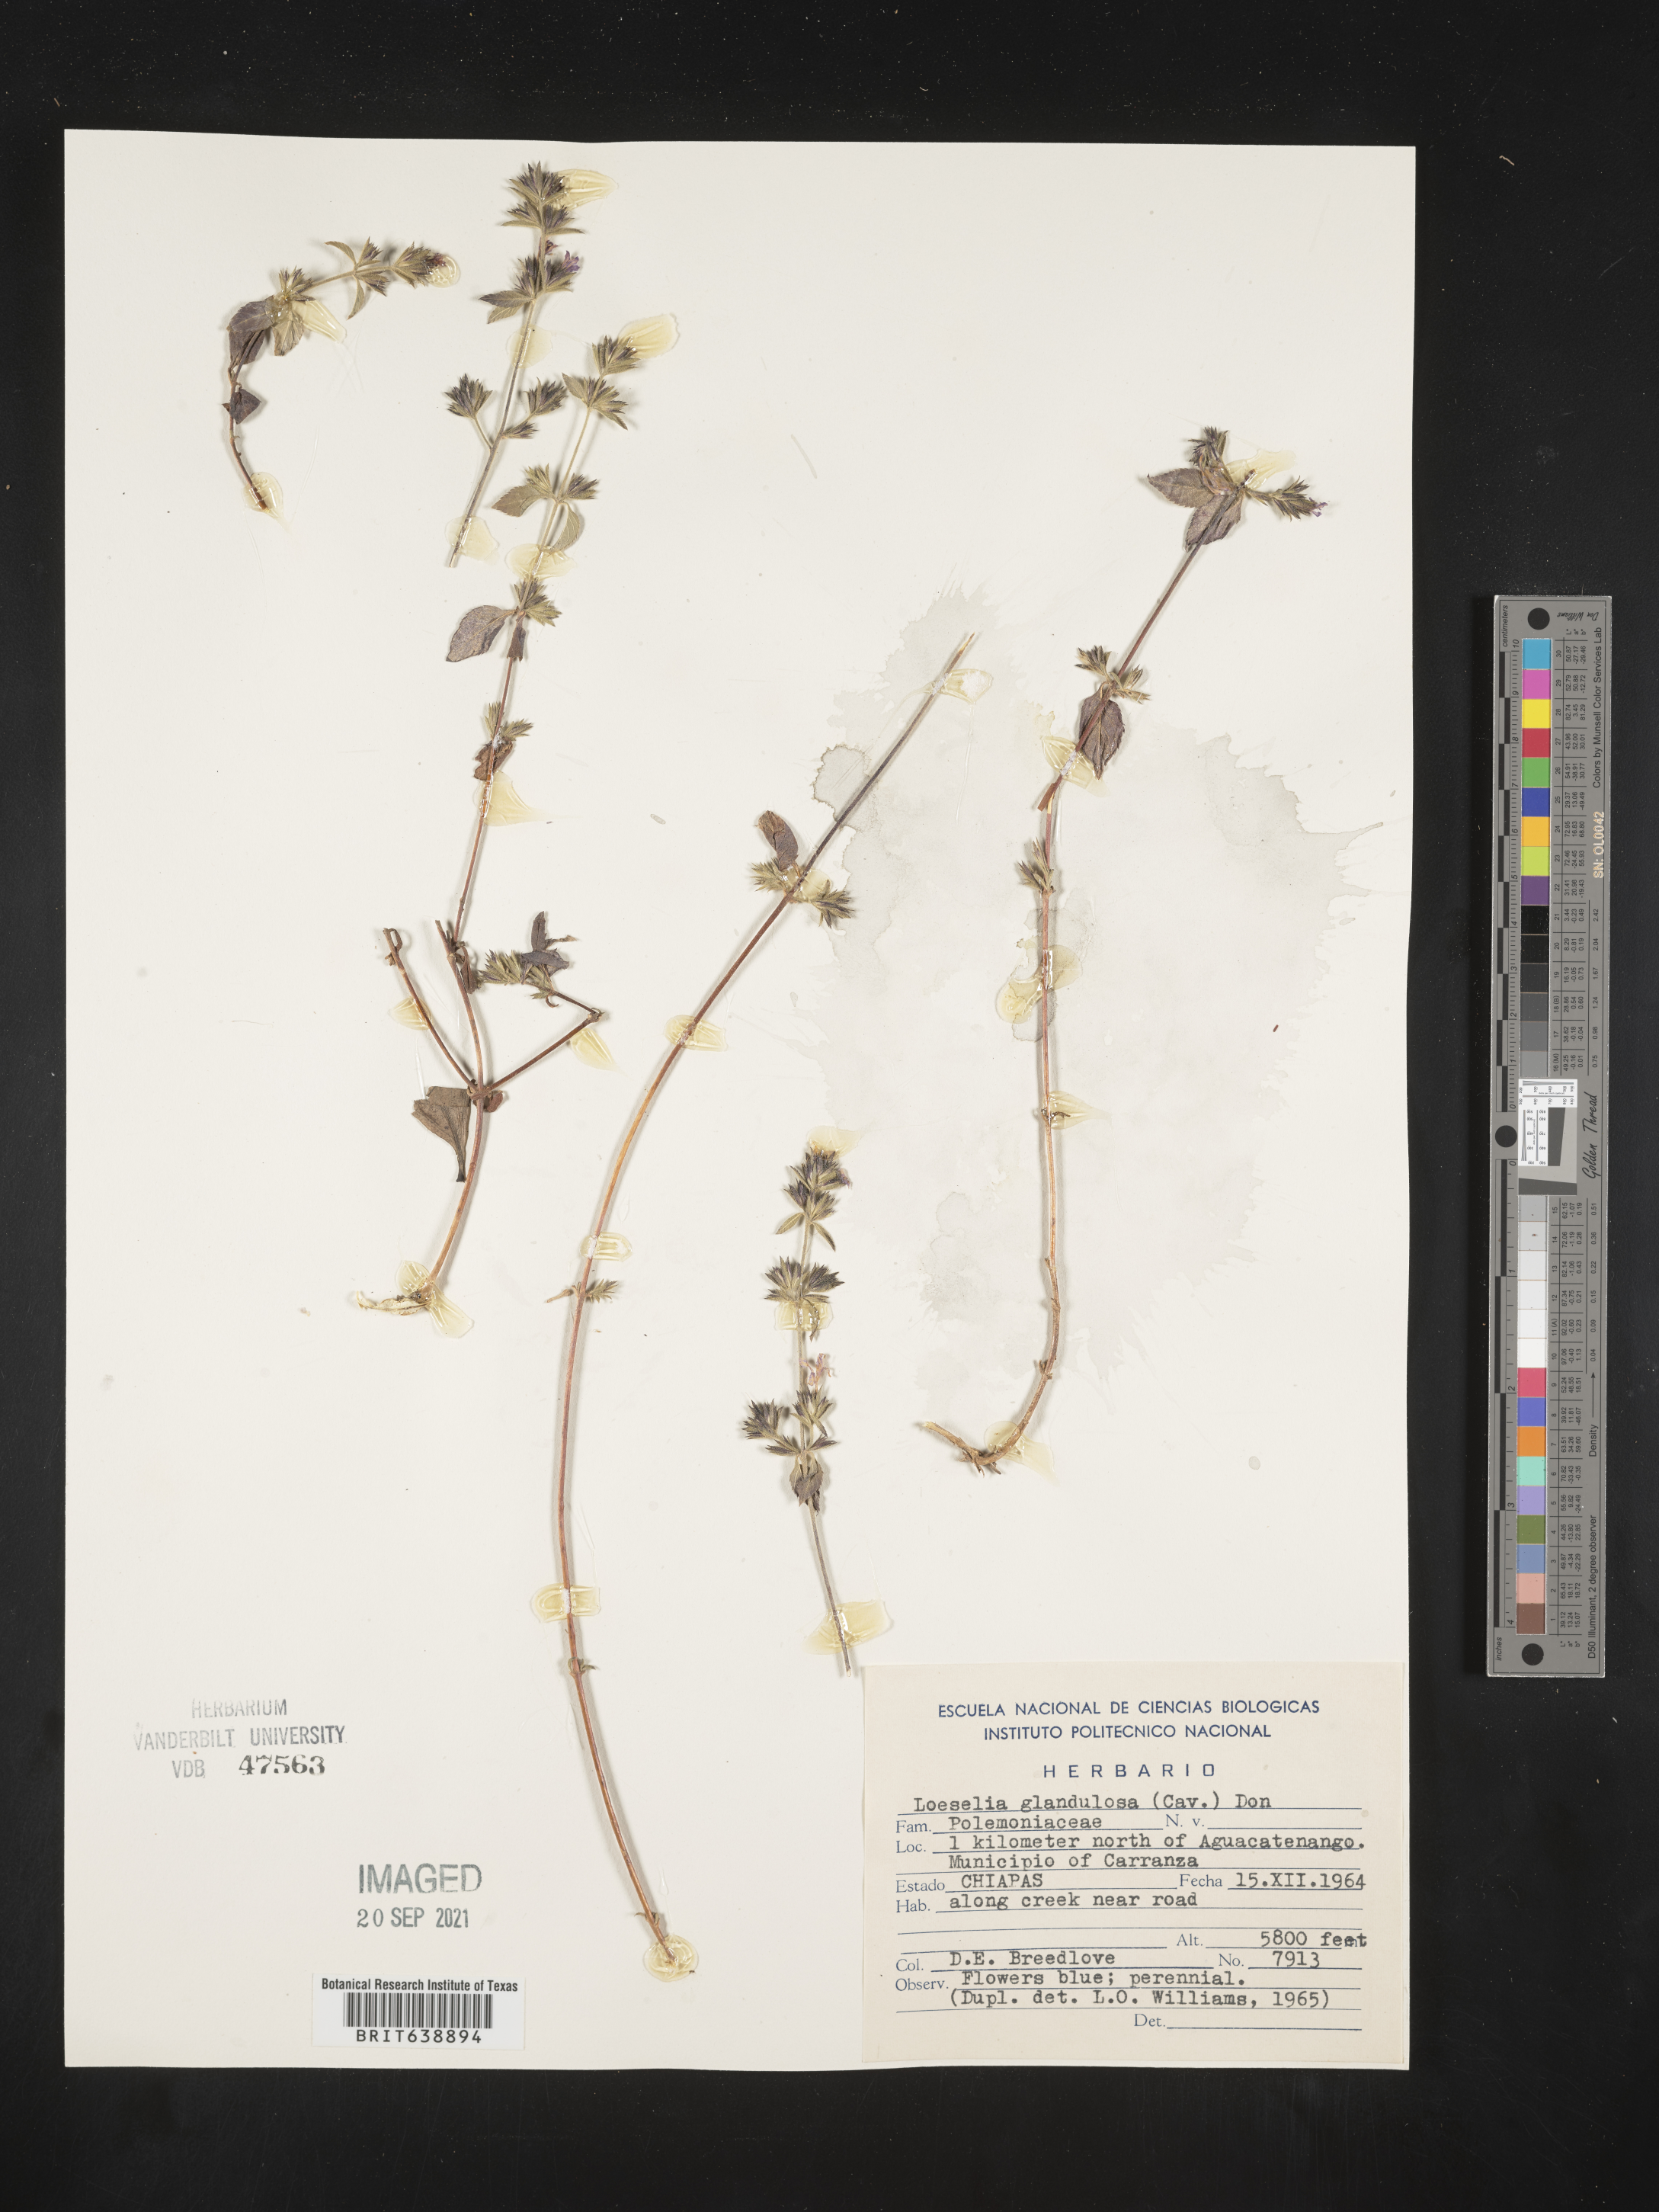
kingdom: Plantae
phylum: Tracheophyta
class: Magnoliopsida
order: Ericales
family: Polemoniaceae
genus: Loeselia
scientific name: Loeselia
